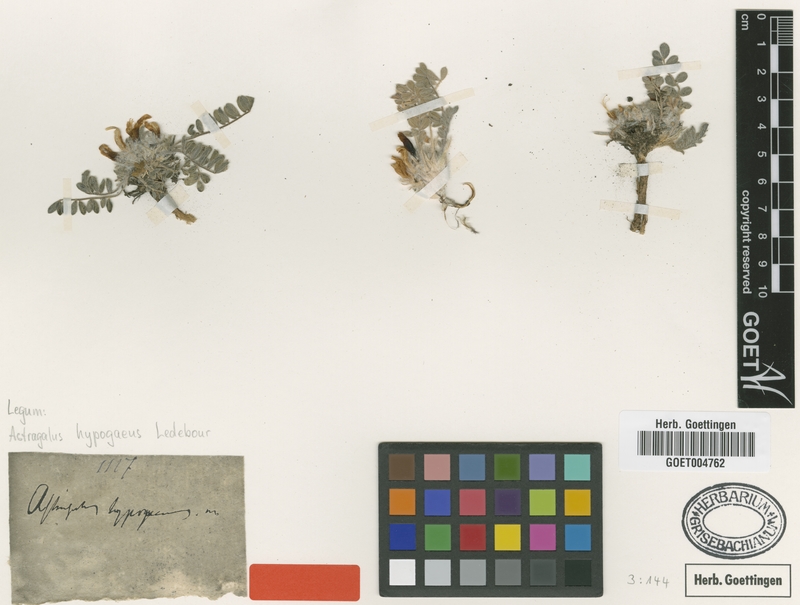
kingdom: Plantae
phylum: Tracheophyta
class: Magnoliopsida
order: Fabales
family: Fabaceae
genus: Astragalus
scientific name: Astragalus hypogaeus
